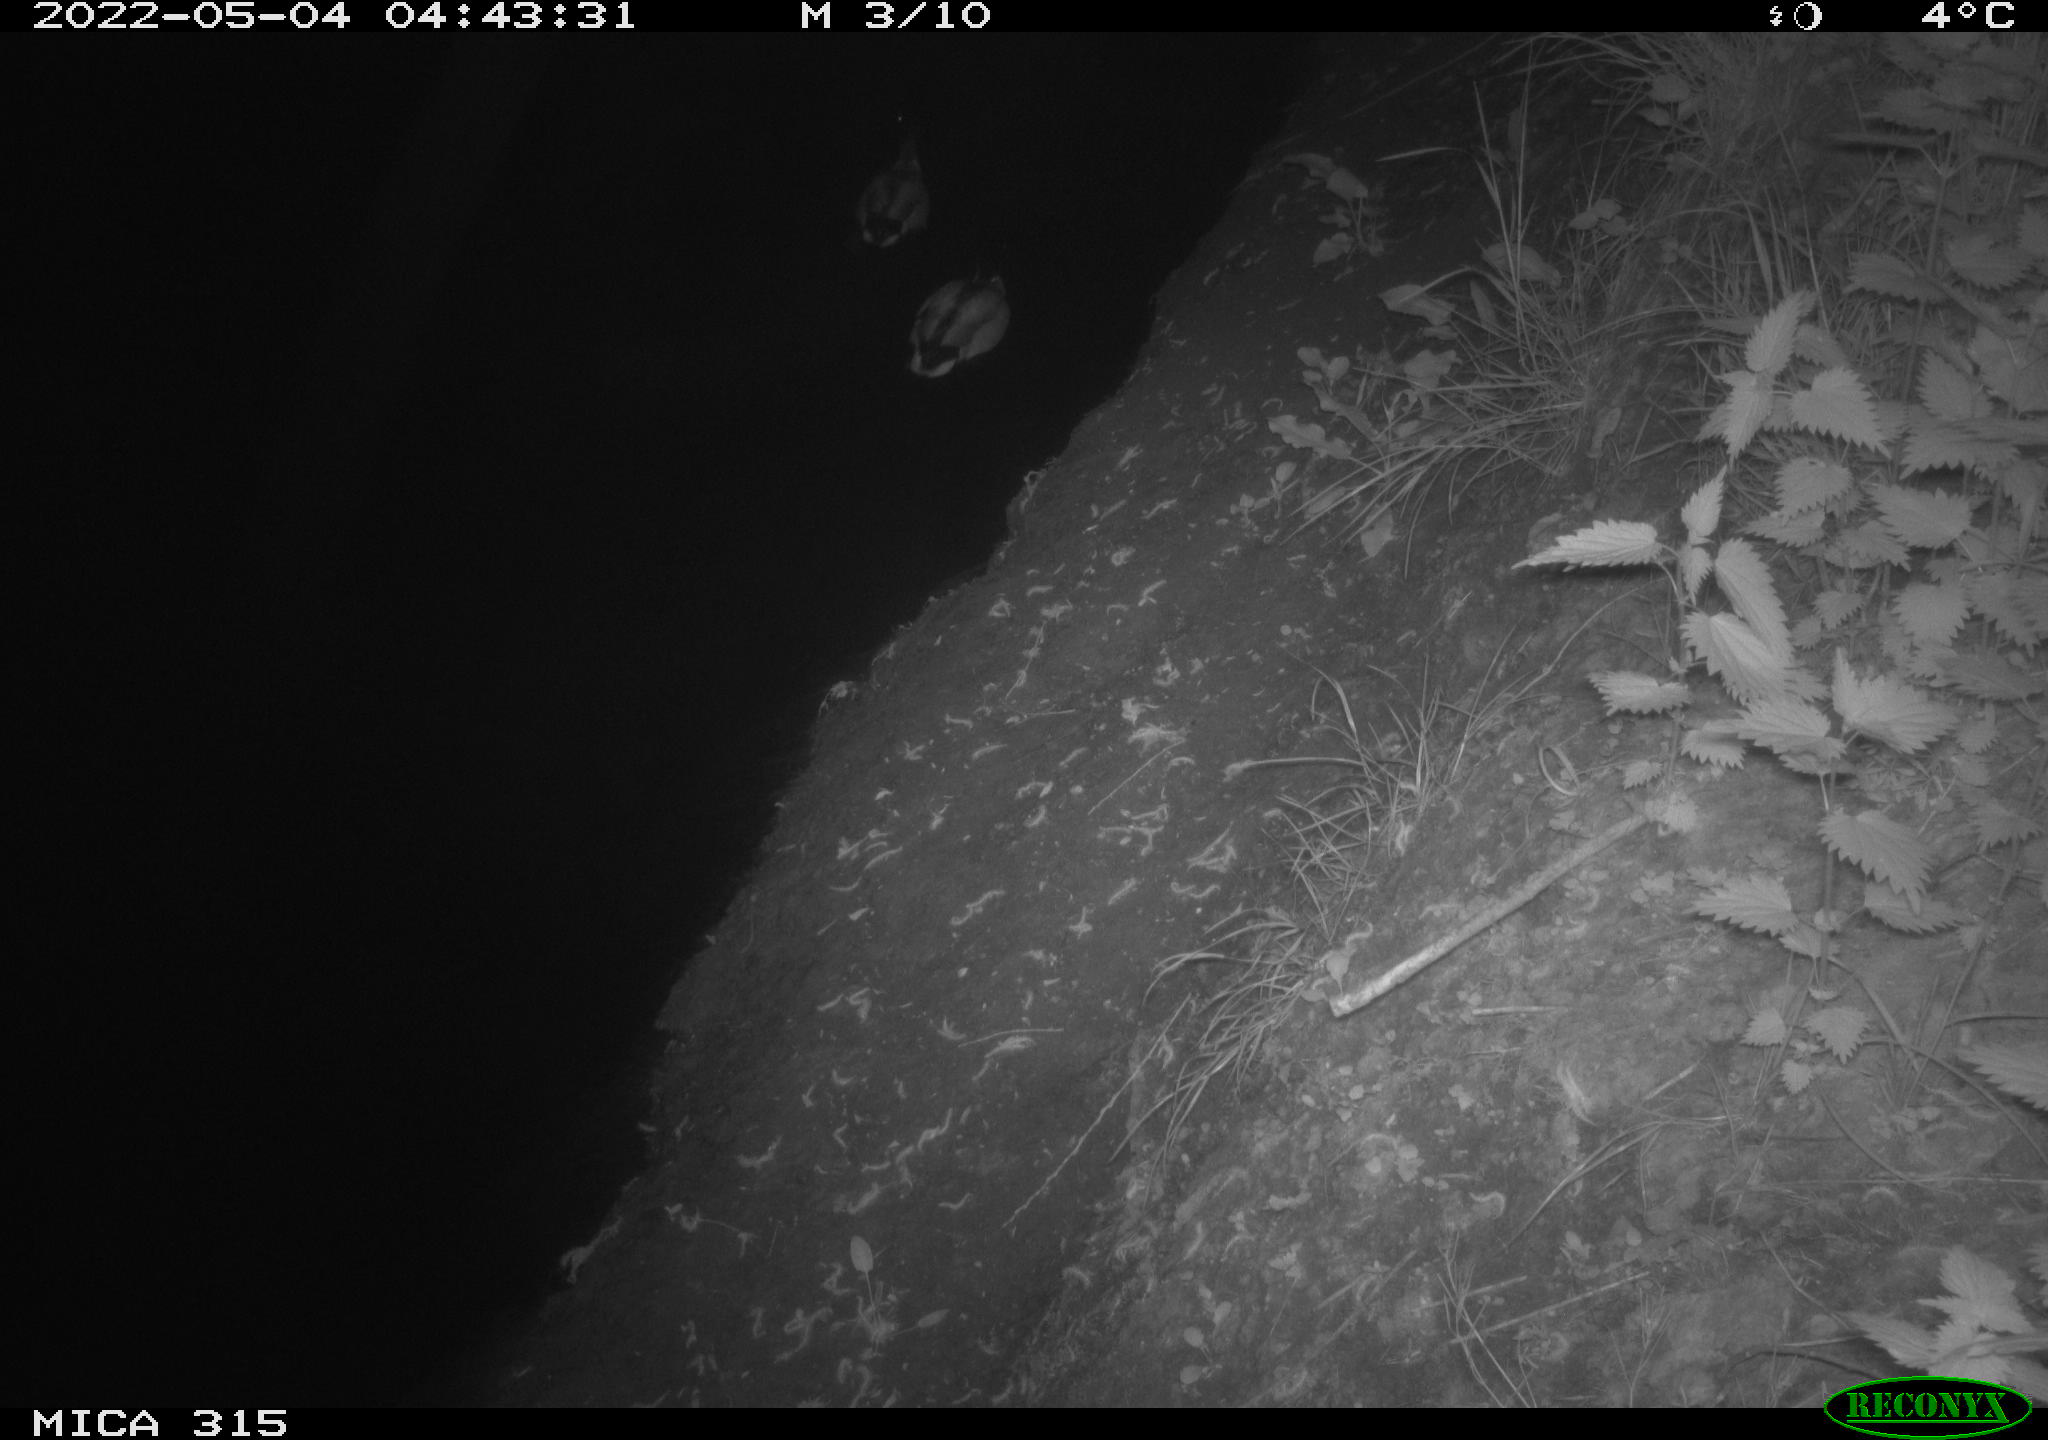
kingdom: Animalia
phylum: Chordata
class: Aves
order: Anseriformes
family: Anatidae
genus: Anas
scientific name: Anas platyrhynchos
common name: Mallard
